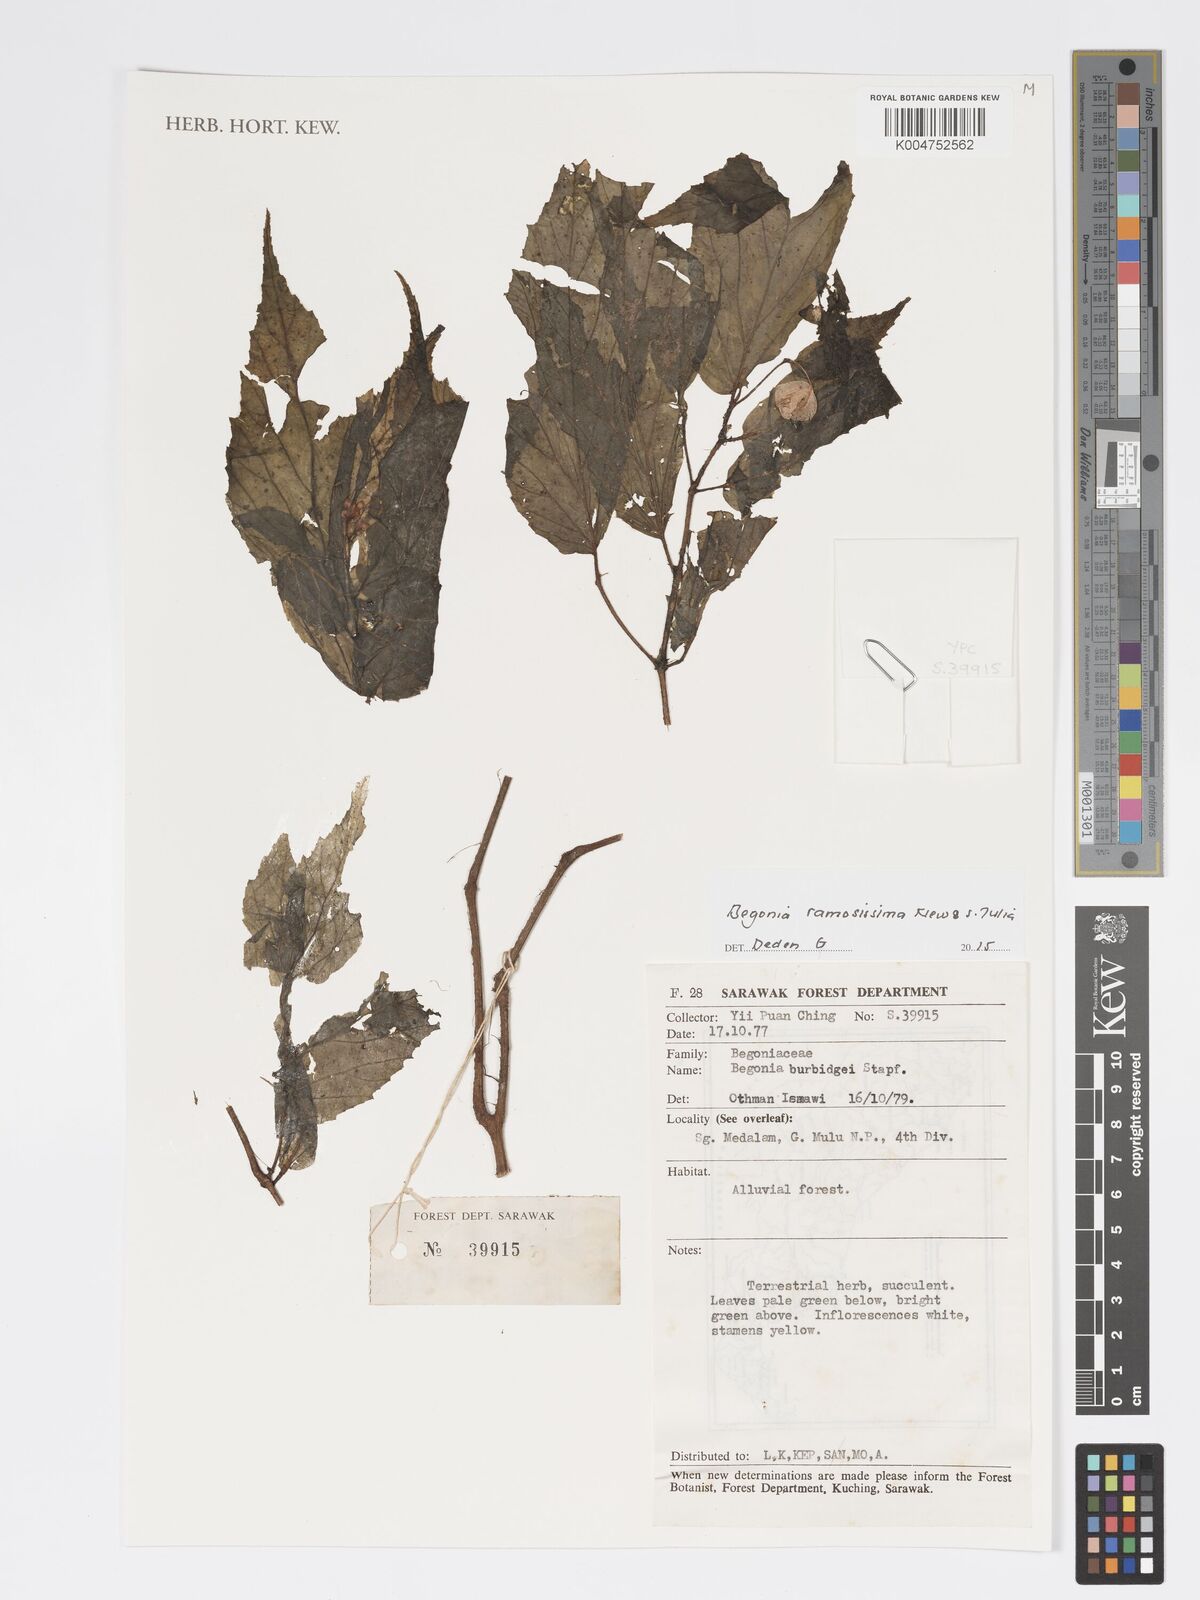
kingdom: Plantae
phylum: Tracheophyta
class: Magnoliopsida
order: Cucurbitales
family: Begoniaceae
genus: Begonia
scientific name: Begonia ramosissima
